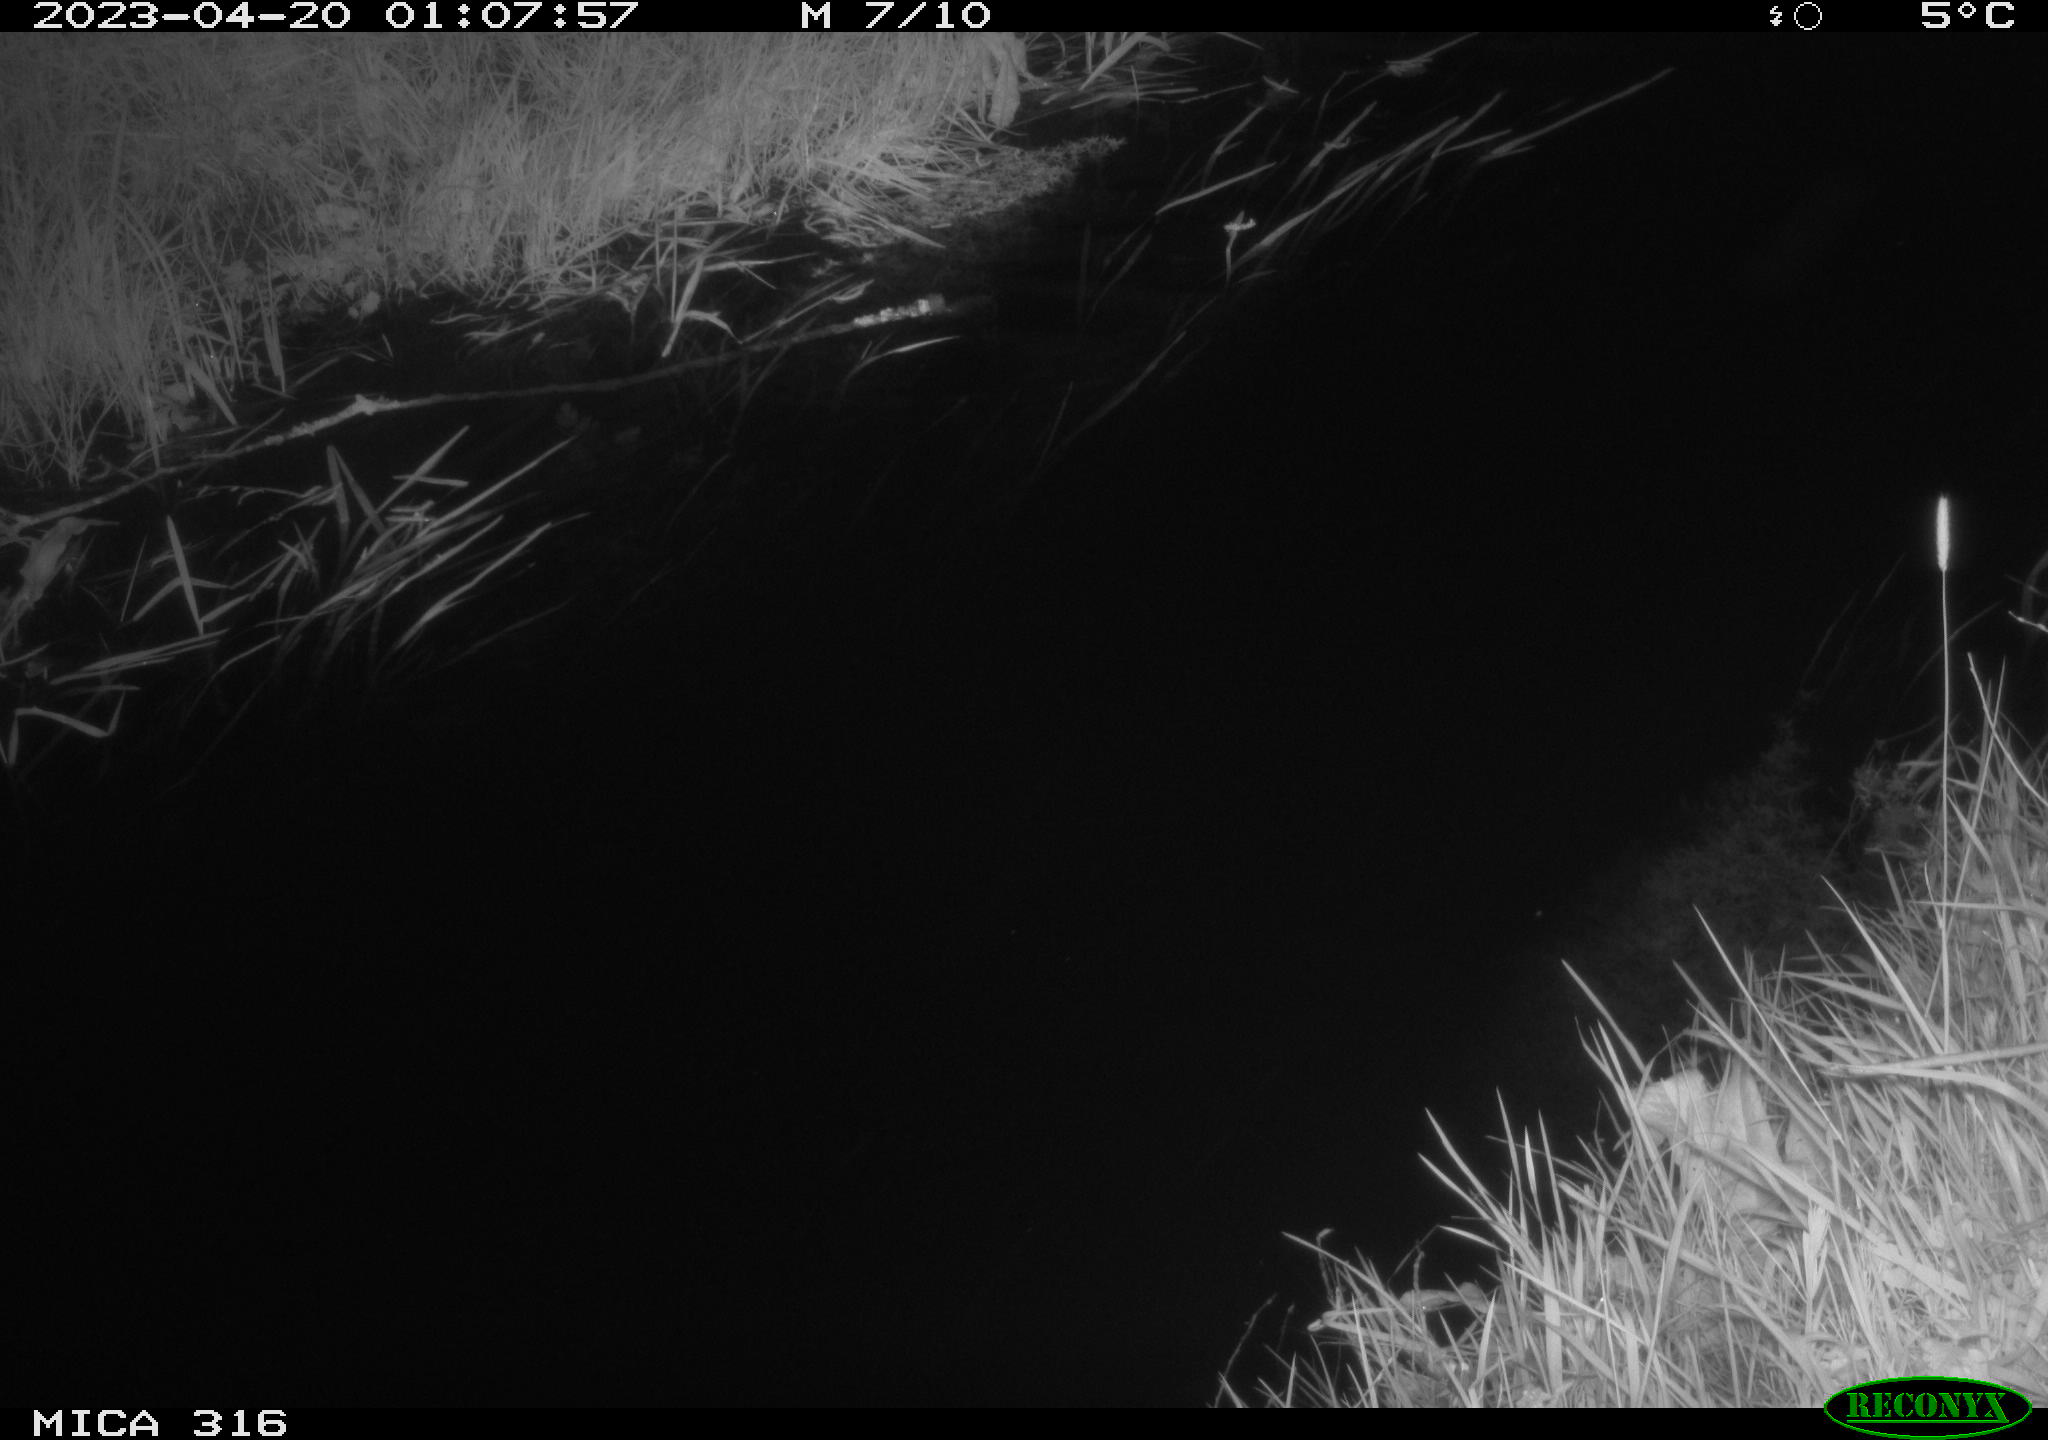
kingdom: Animalia
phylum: Chordata
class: Aves
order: Anseriformes
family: Anatidae
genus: Anas
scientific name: Anas
